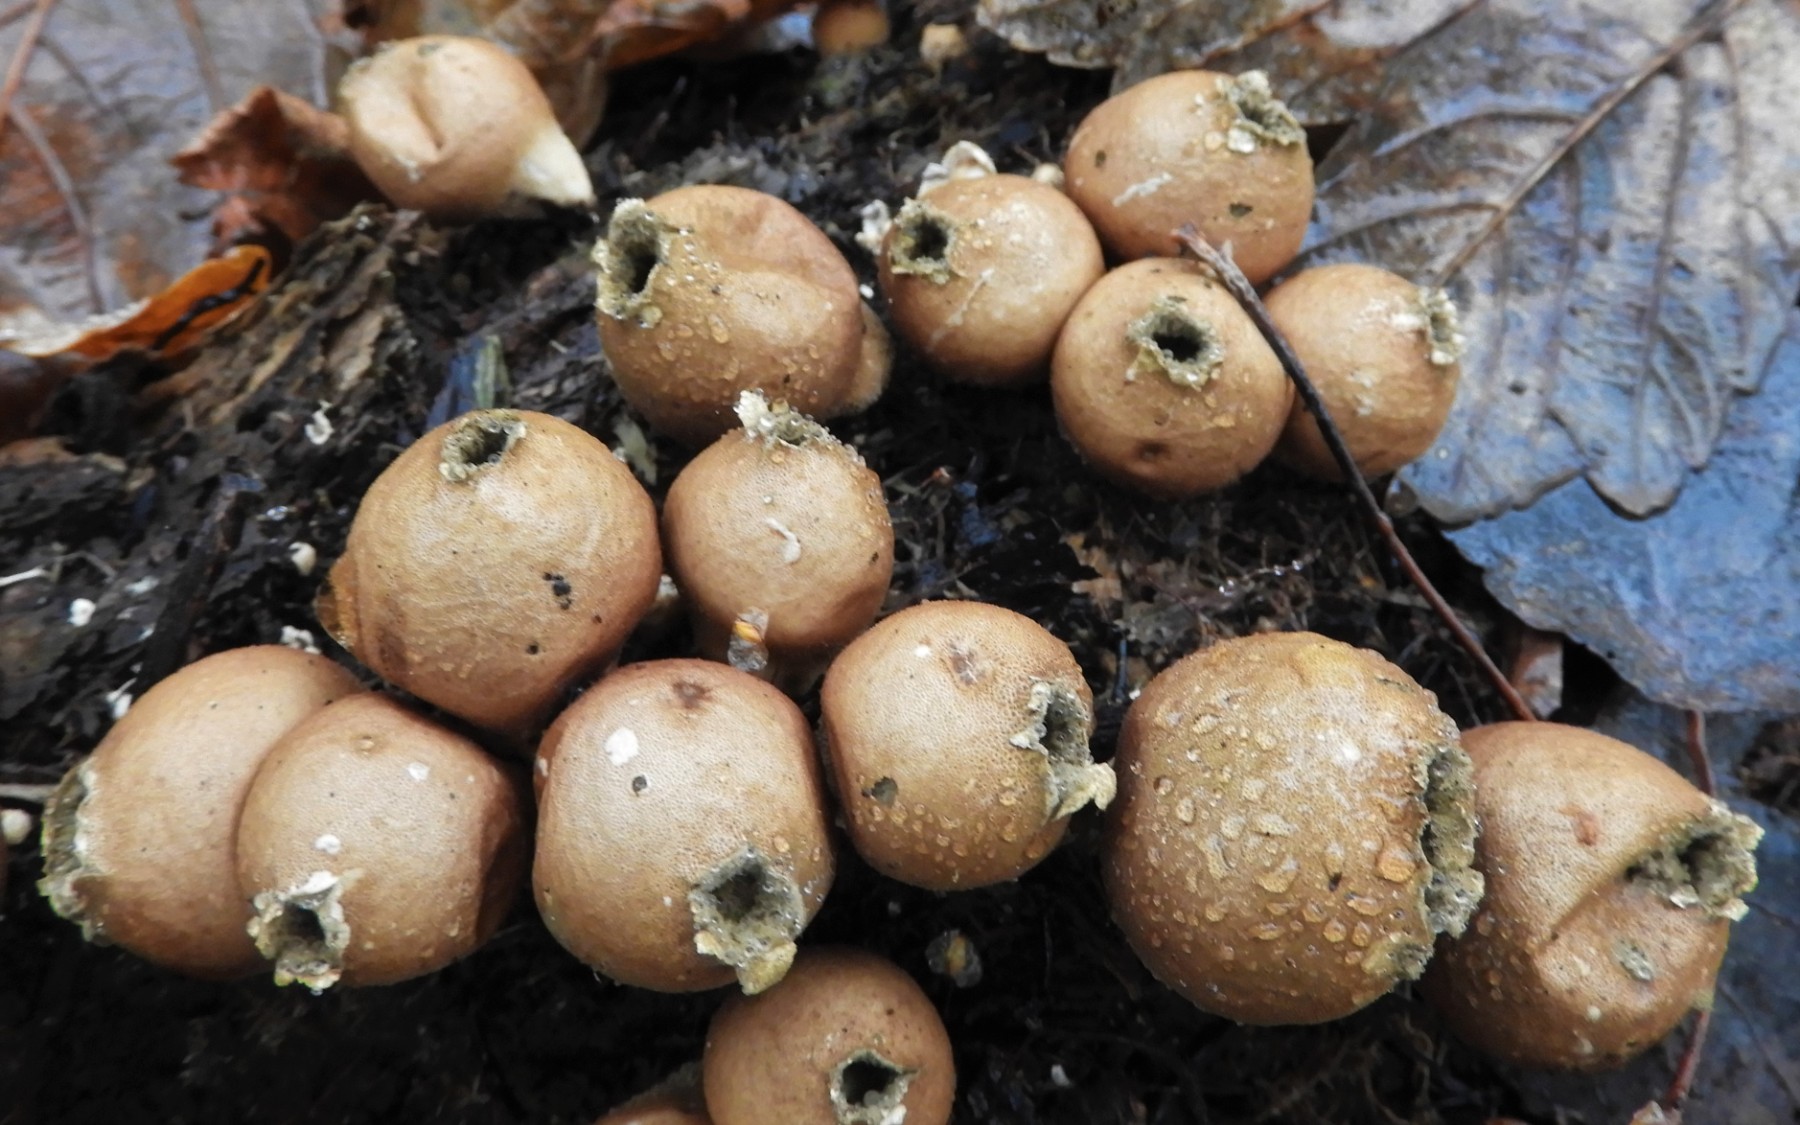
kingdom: Fungi
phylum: Basidiomycota
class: Agaricomycetes
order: Agaricales
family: Lycoperdaceae
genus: Apioperdon
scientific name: Apioperdon pyriforme
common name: pære-støvbold
